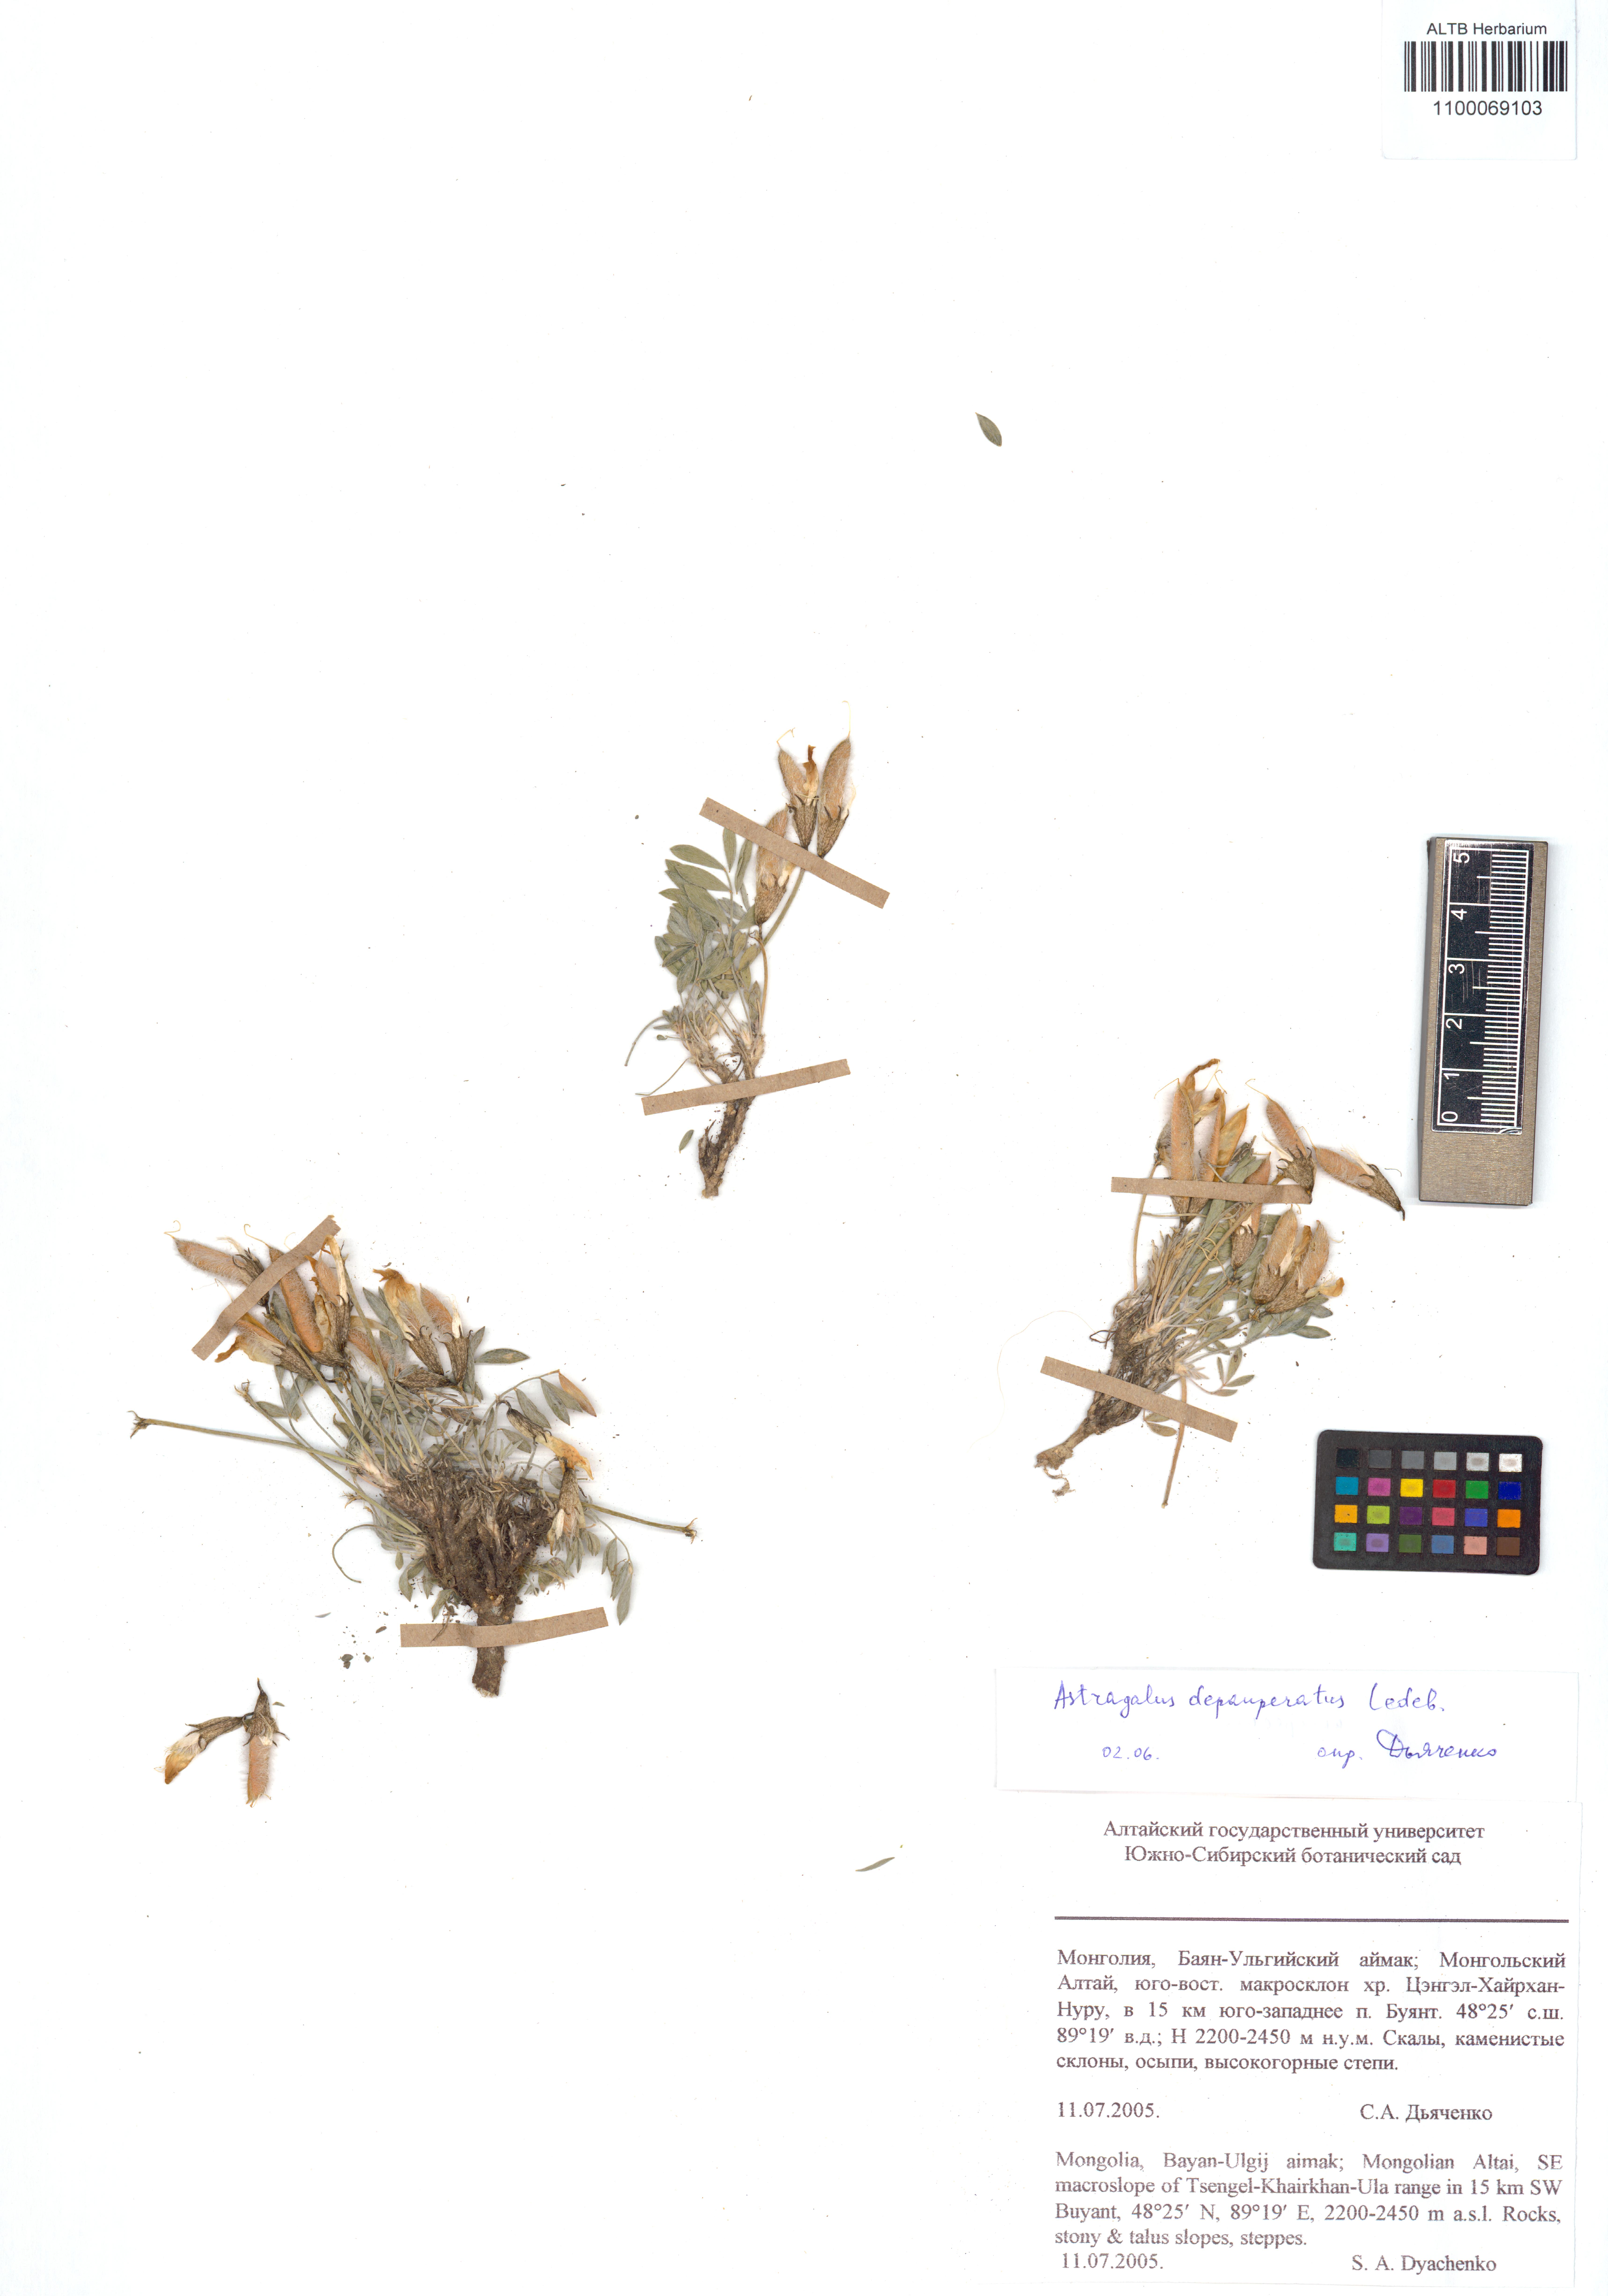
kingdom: Plantae
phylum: Tracheophyta
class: Magnoliopsida
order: Fabales
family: Fabaceae
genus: Astragalus
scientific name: Astragalus depauperatus
